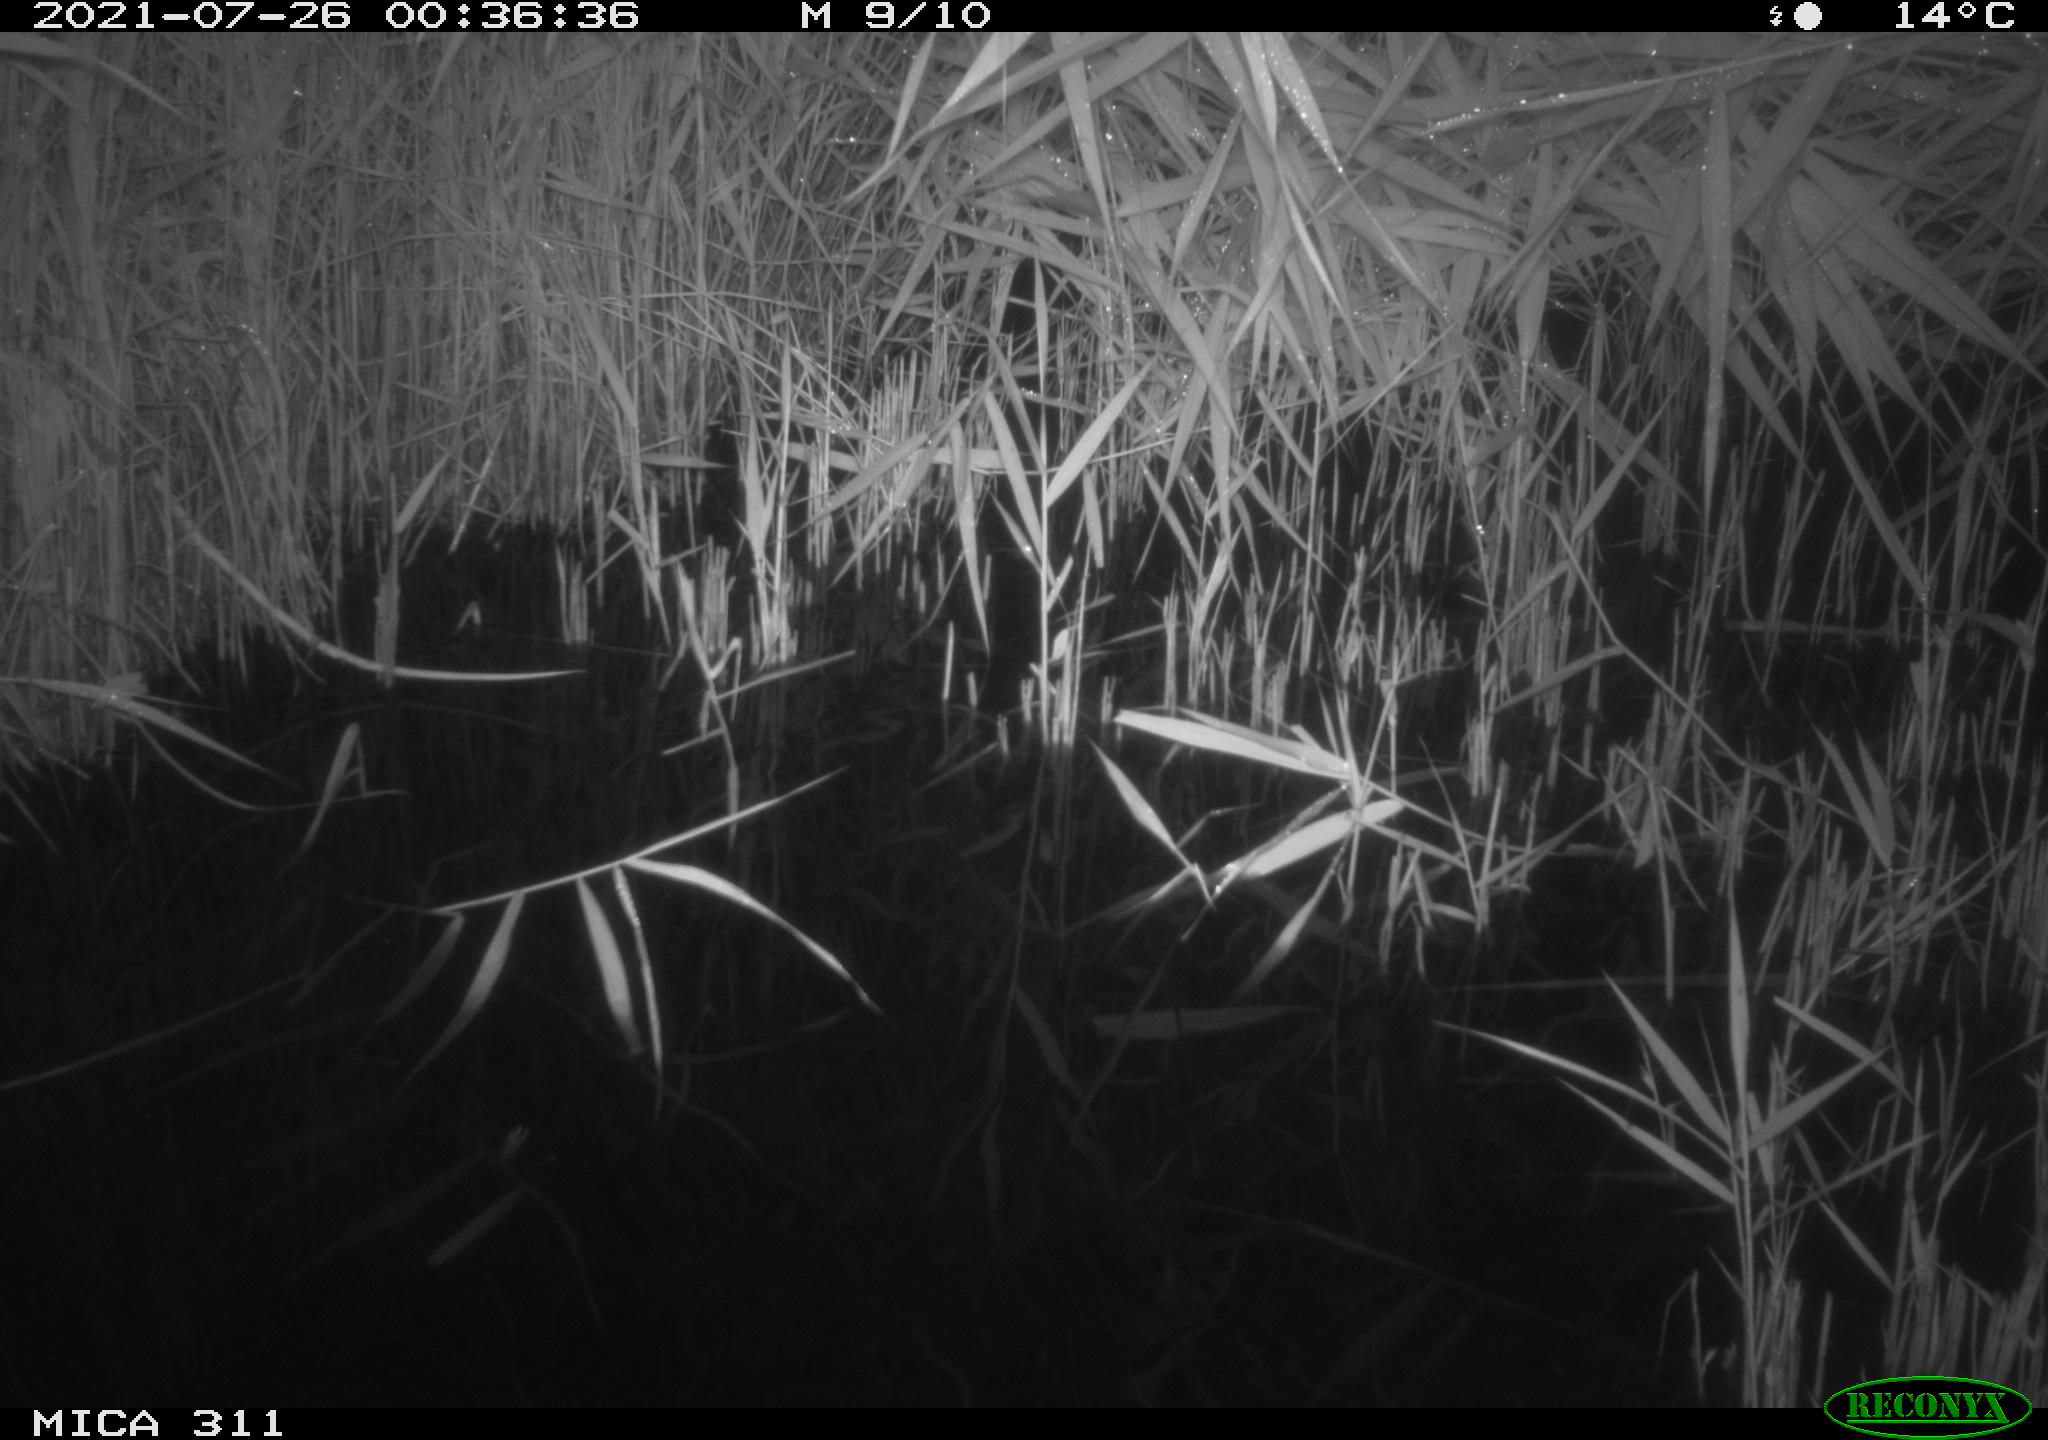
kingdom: Animalia
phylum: Chordata
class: Mammalia
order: Rodentia
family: Muridae
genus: Rattus
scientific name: Rattus norvegicus
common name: Brown rat
